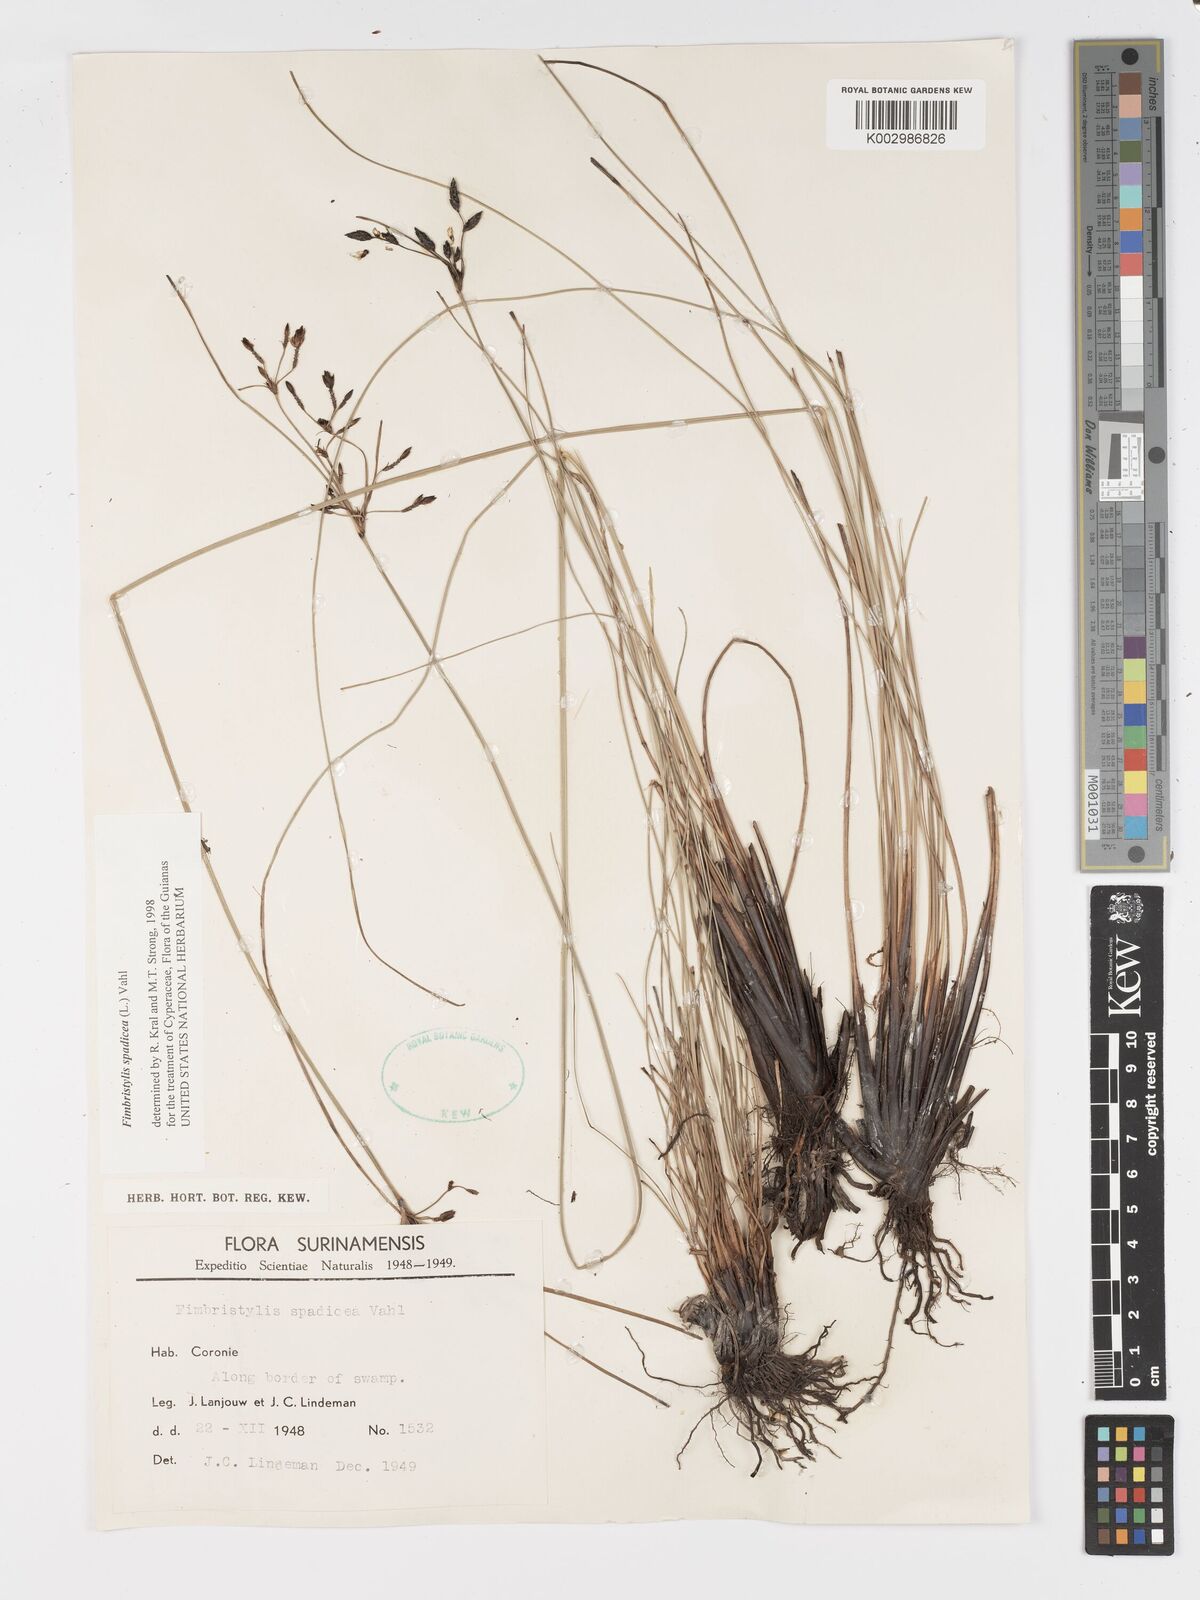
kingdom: Plantae
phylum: Tracheophyta
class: Liliopsida
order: Poales
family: Cyperaceae
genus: Fimbristylis
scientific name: Fimbristylis spadicea
